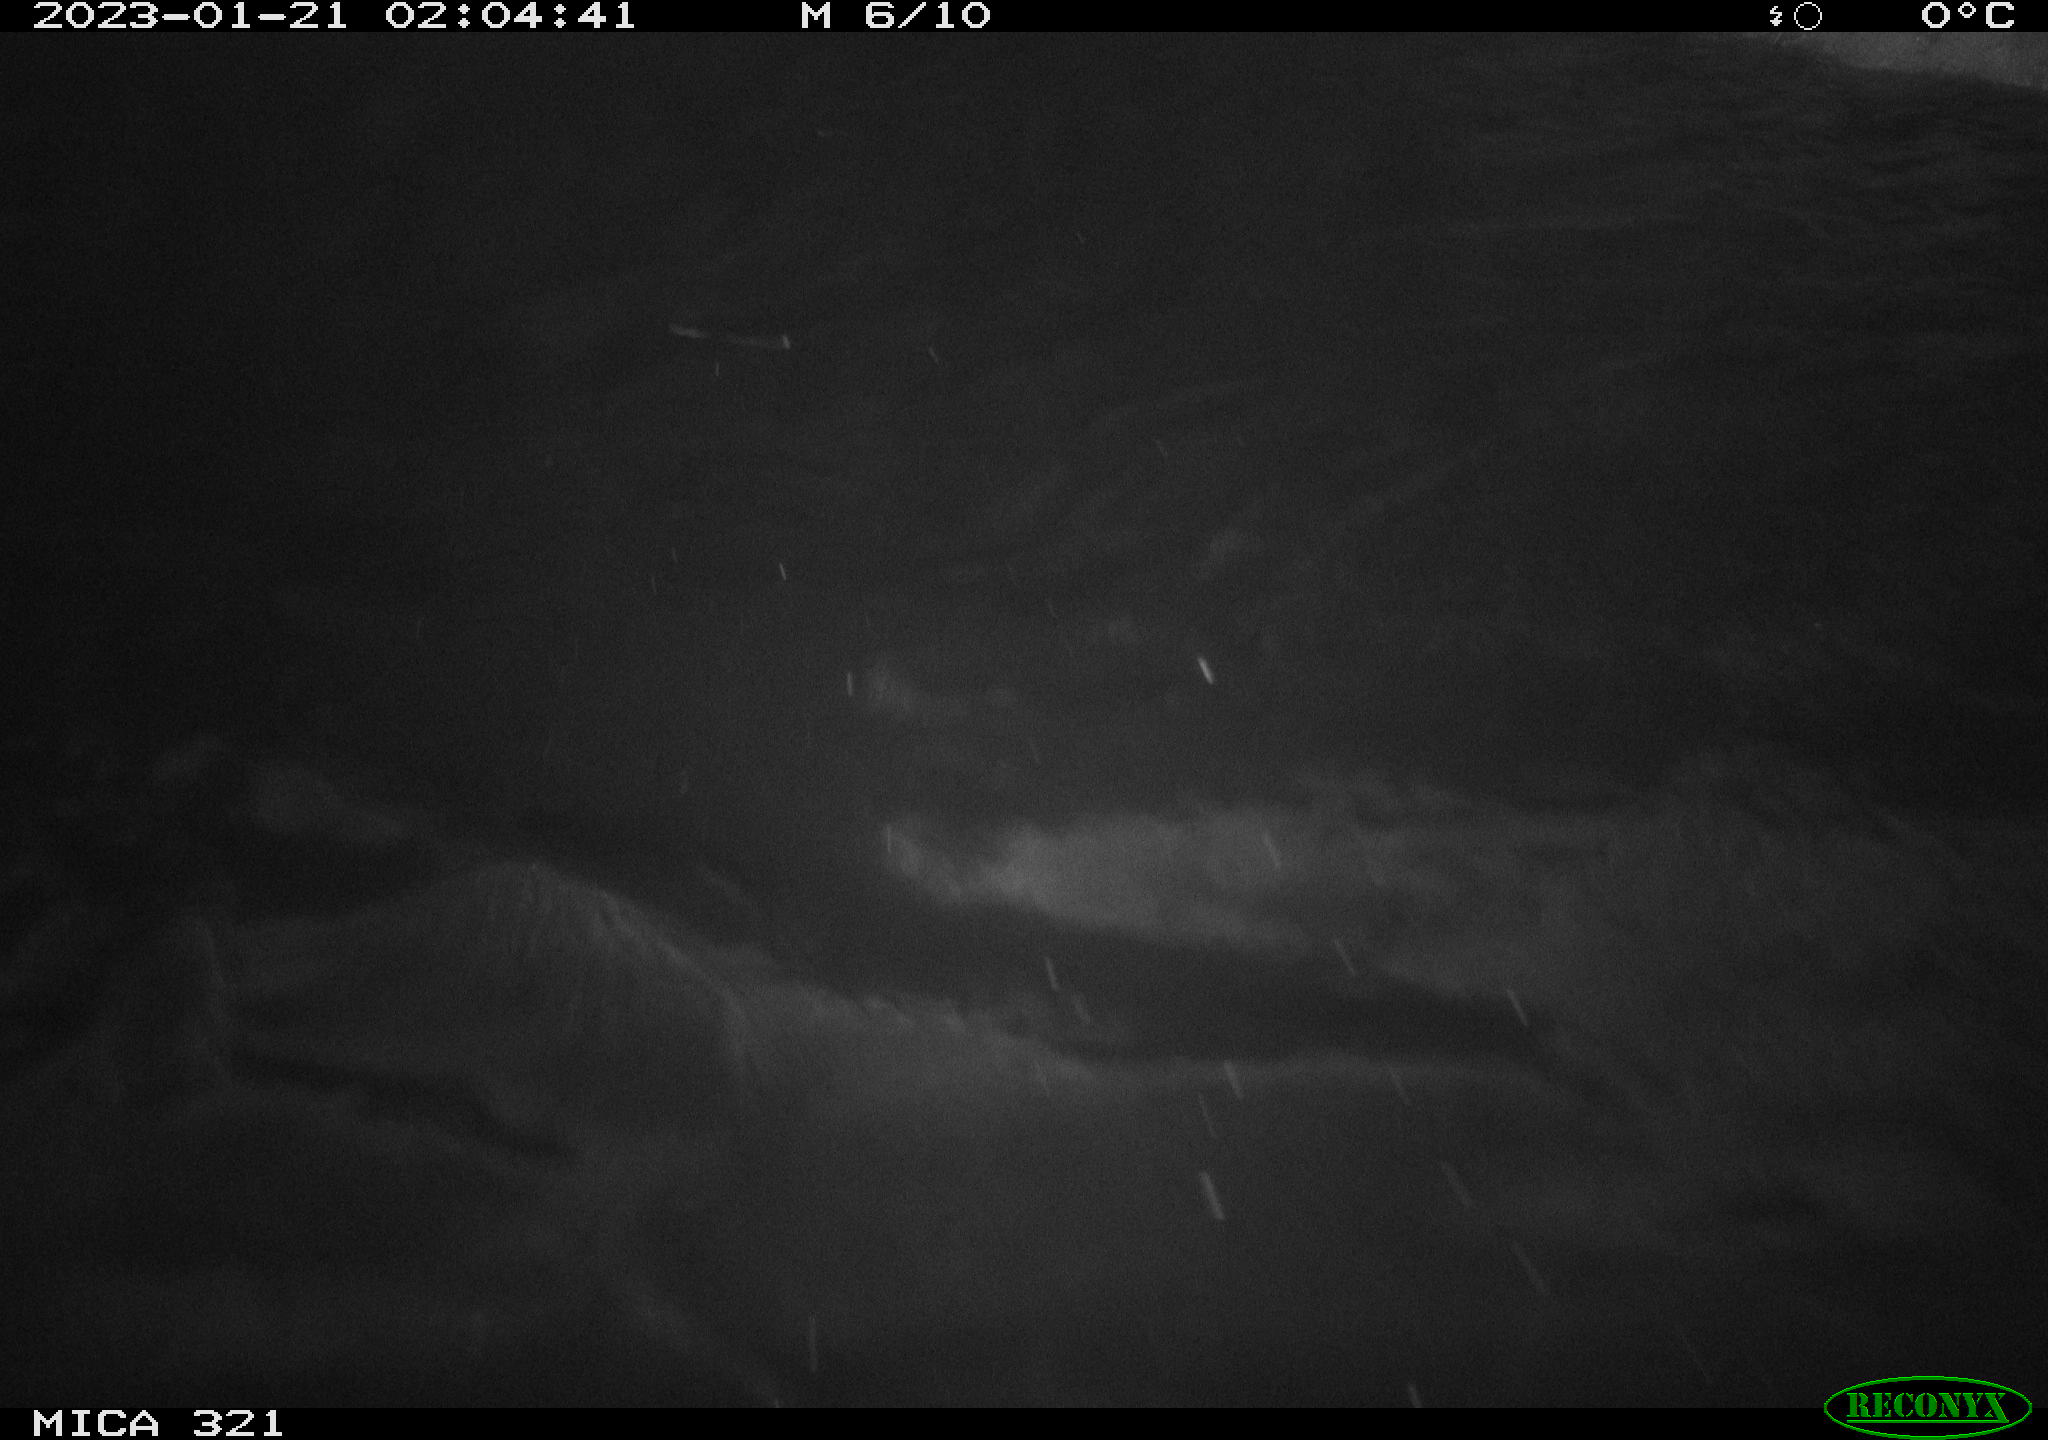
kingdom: Animalia
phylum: Chordata
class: Mammalia
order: Carnivora
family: Canidae
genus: Vulpes
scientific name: Vulpes vulpes
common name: Red fox
